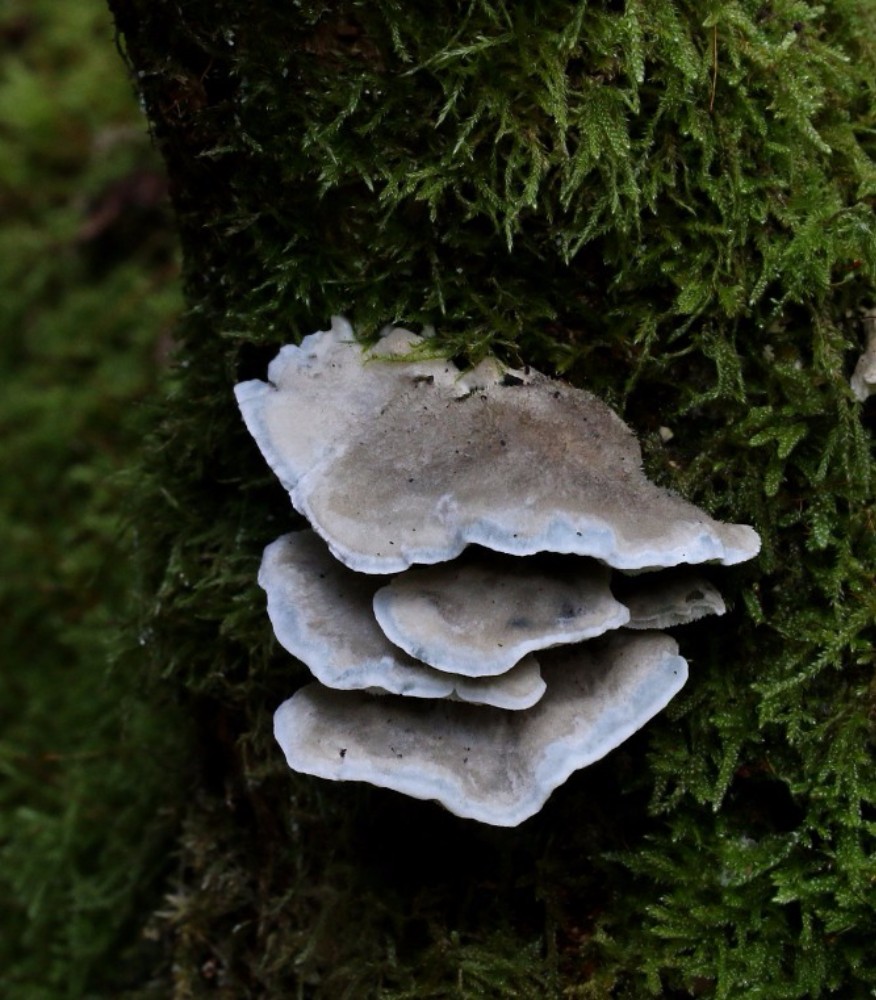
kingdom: Fungi
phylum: Basidiomycota
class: Agaricomycetes
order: Polyporales
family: Polyporaceae
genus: Cyanosporus
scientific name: Cyanosporus caesius
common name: blålig kødporesvamp
